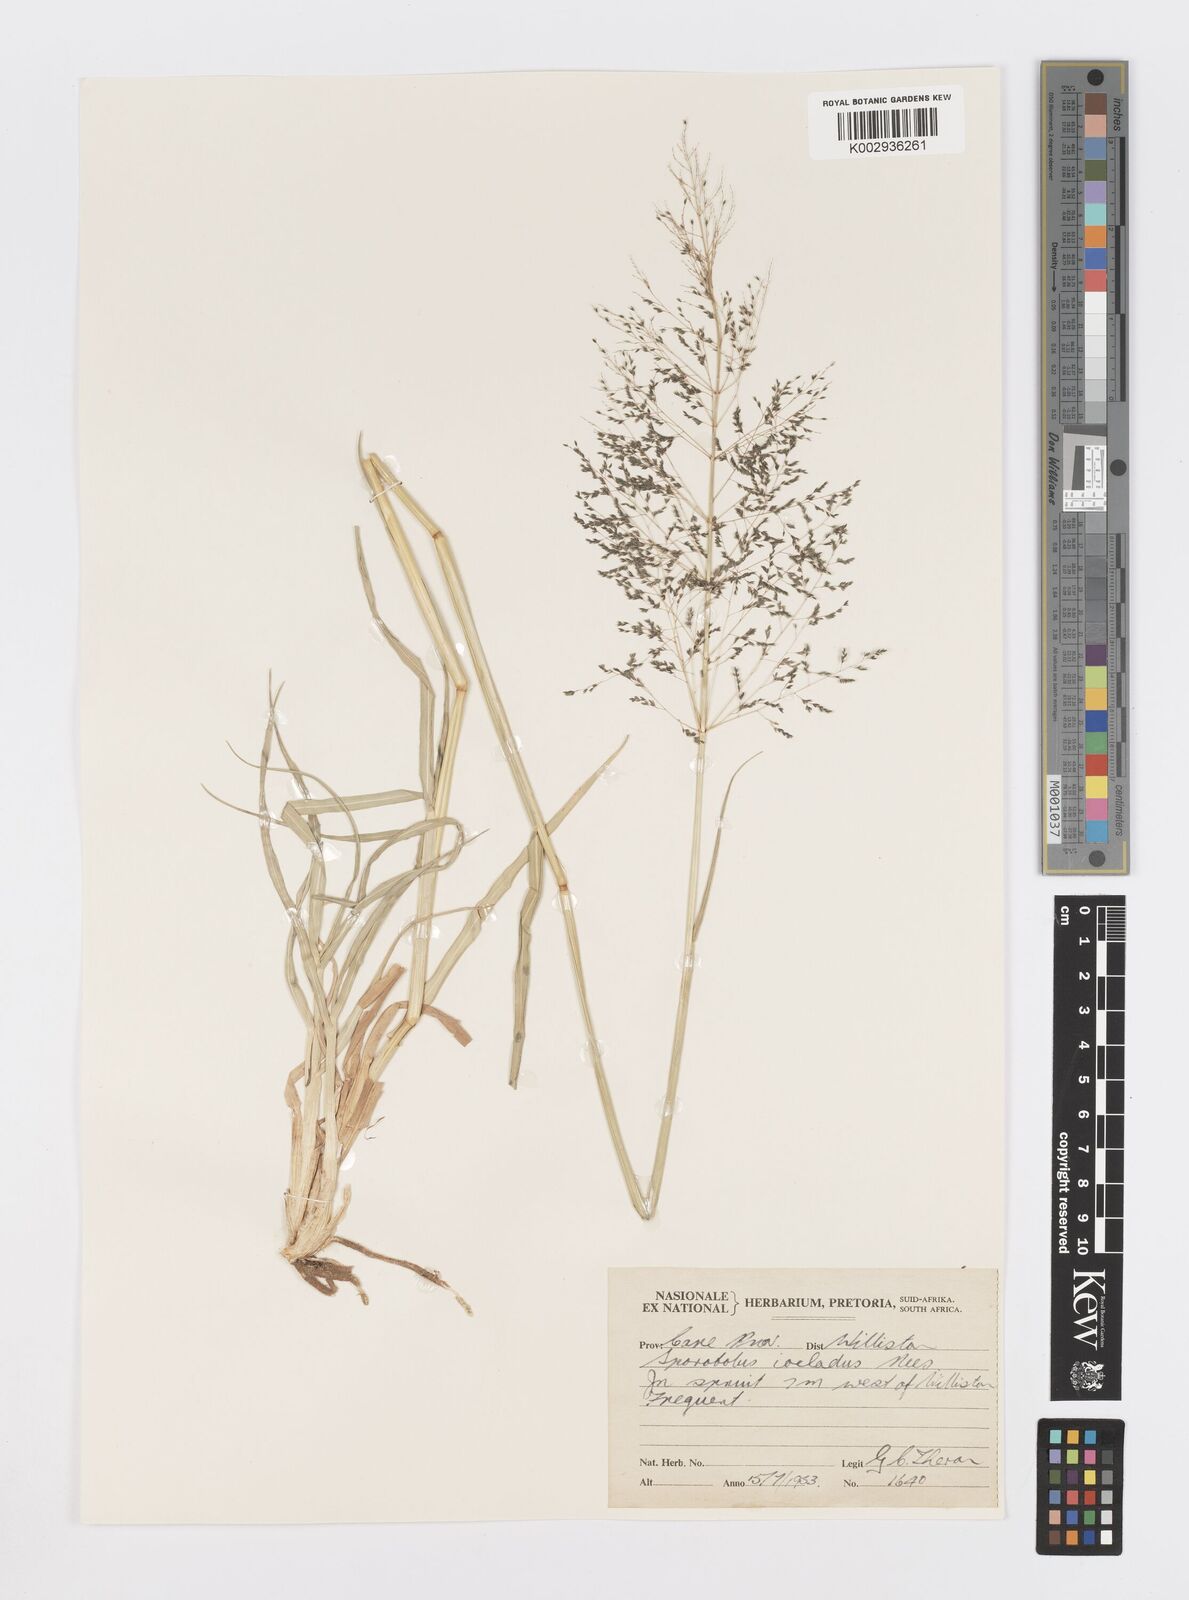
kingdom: Plantae
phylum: Tracheophyta
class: Liliopsida
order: Poales
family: Poaceae
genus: Sporobolus
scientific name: Sporobolus ioclados
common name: Pan dropseed
